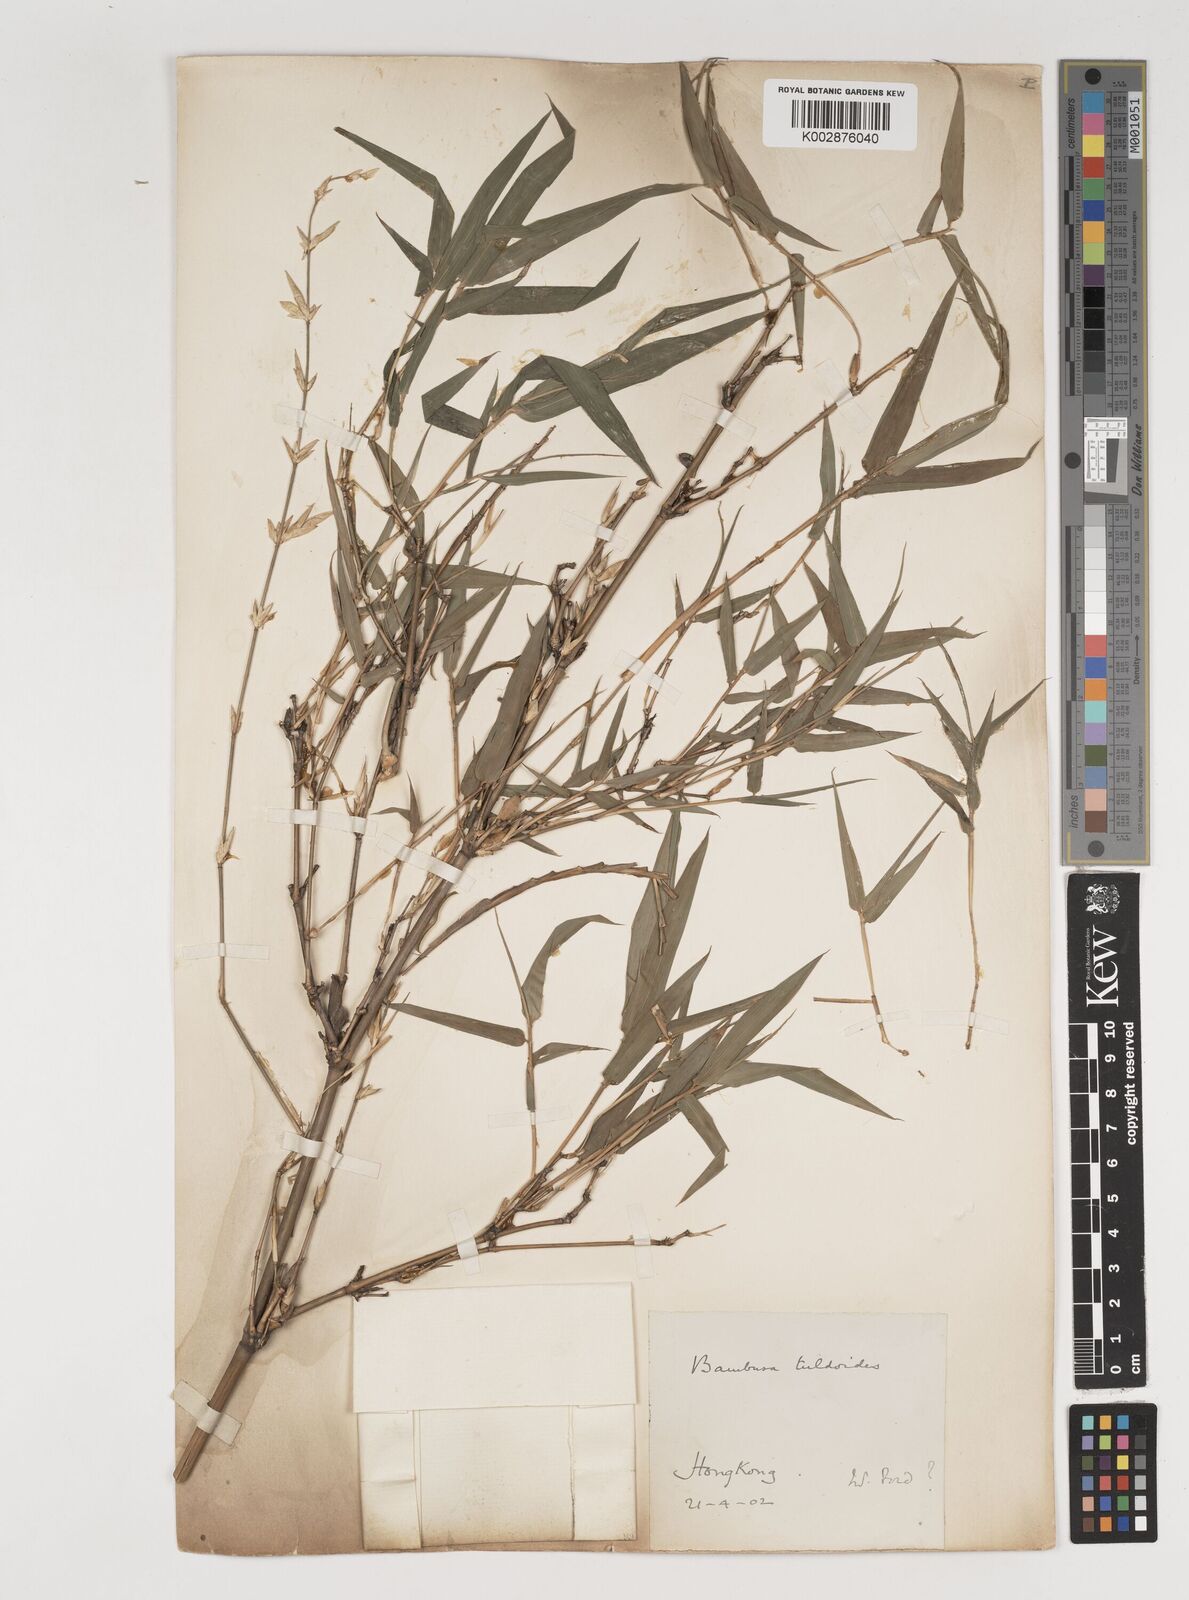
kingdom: Plantae
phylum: Tracheophyta
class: Liliopsida
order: Poales
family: Poaceae
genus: Bambusa
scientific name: Bambusa tuldoides
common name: Verdant bamboo
